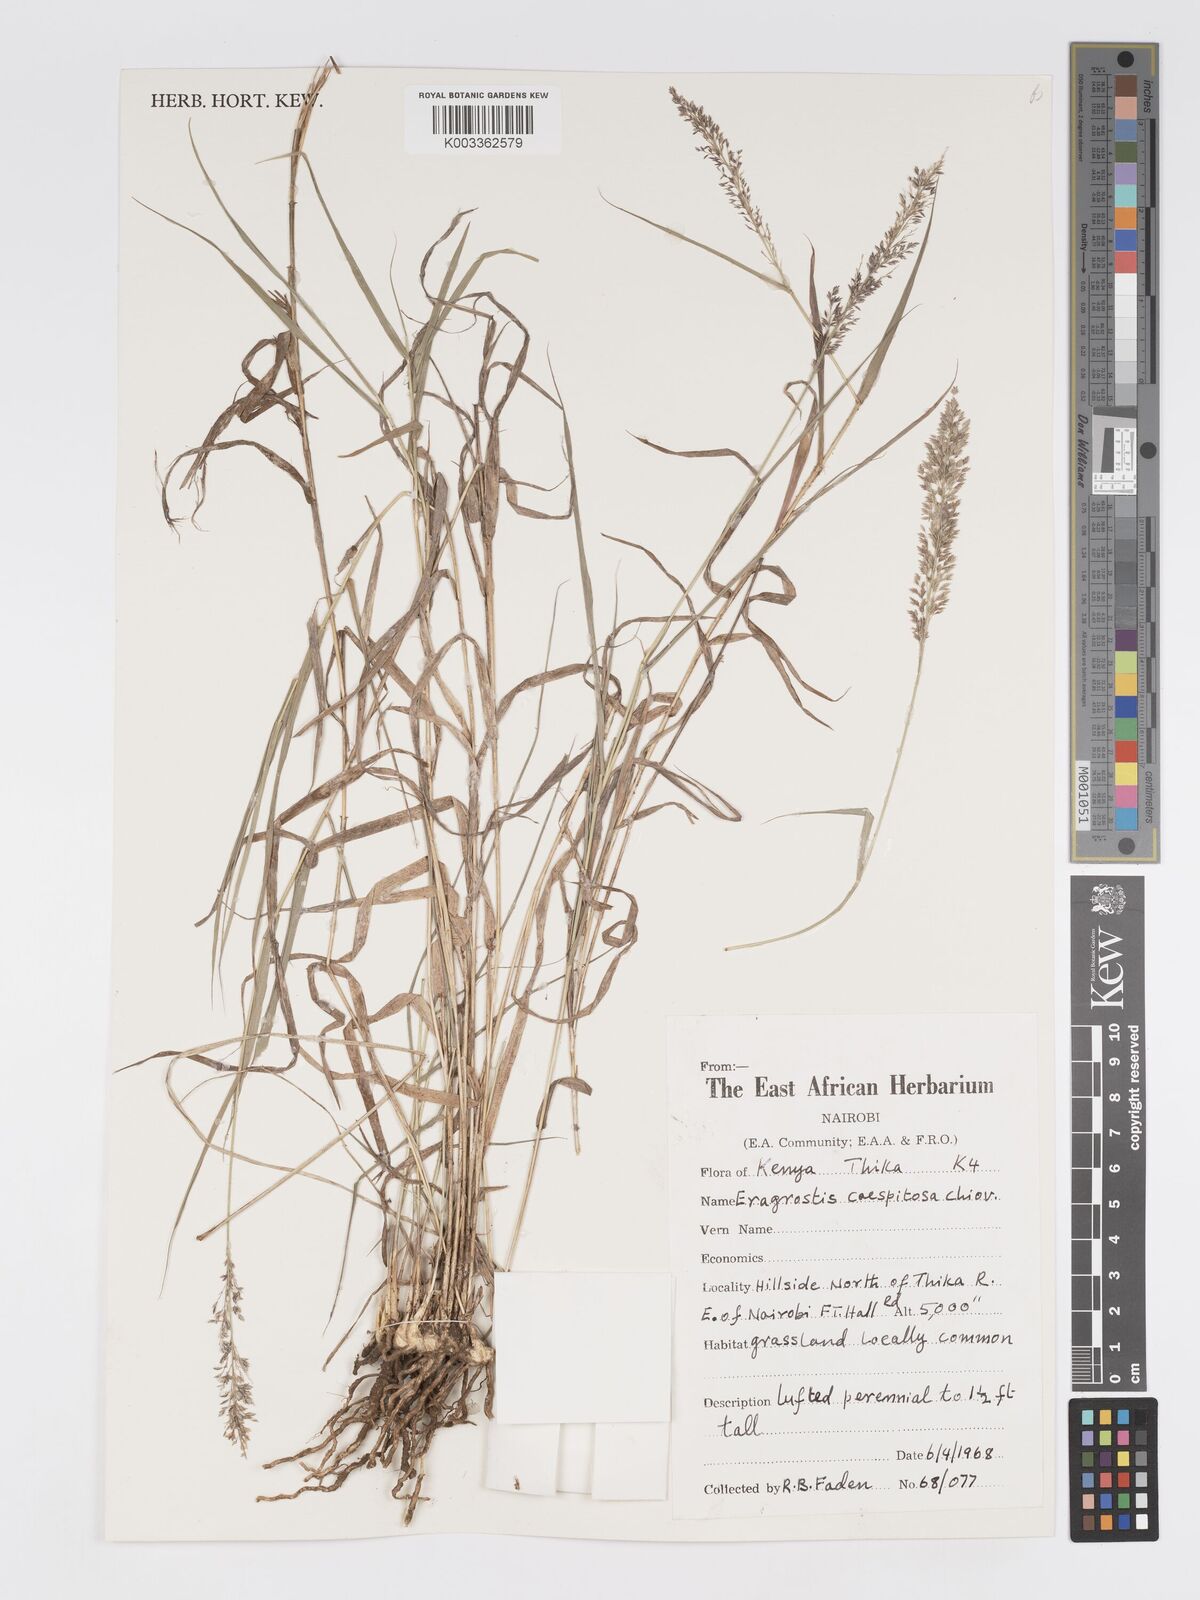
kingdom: Plantae
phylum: Tracheophyta
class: Liliopsida
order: Poales
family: Poaceae
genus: Eragrostis
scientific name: Eragrostis caespitosa
